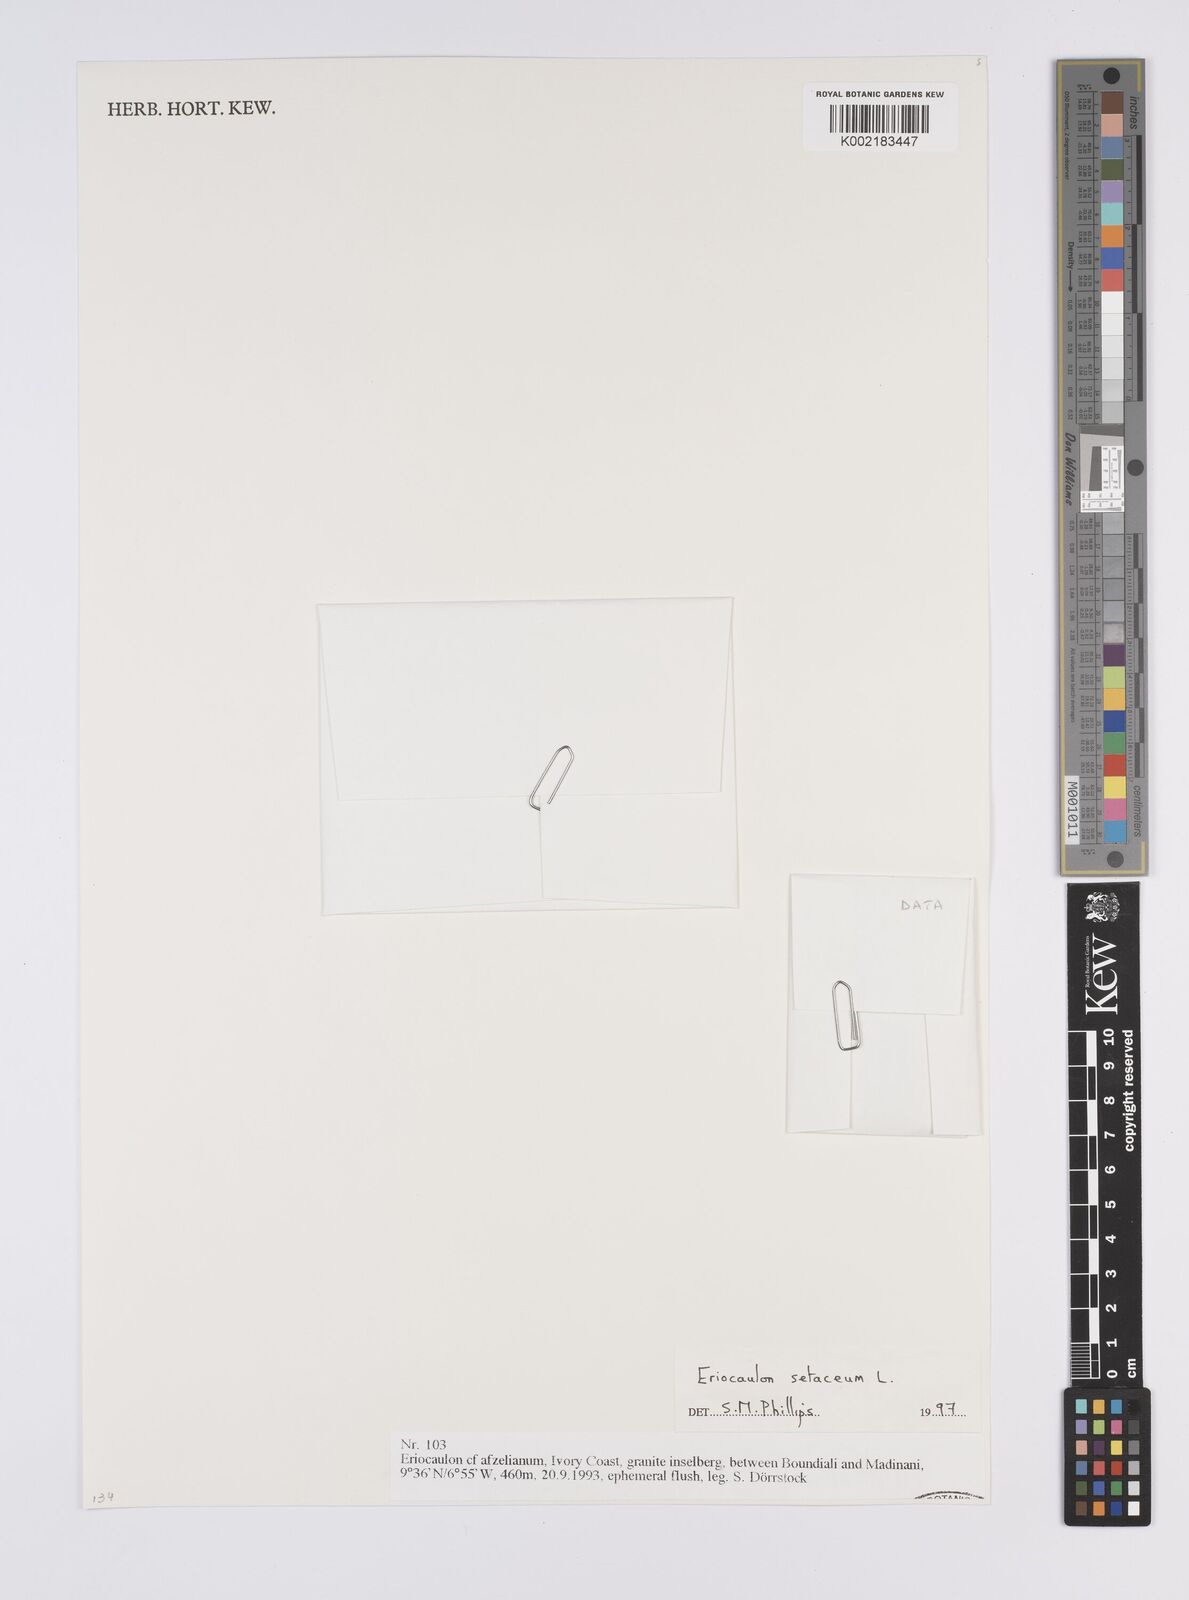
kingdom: Plantae
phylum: Tracheophyta
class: Liliopsida
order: Poales
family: Eriocaulaceae
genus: Eriocaulon
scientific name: Eriocaulon setaceum
